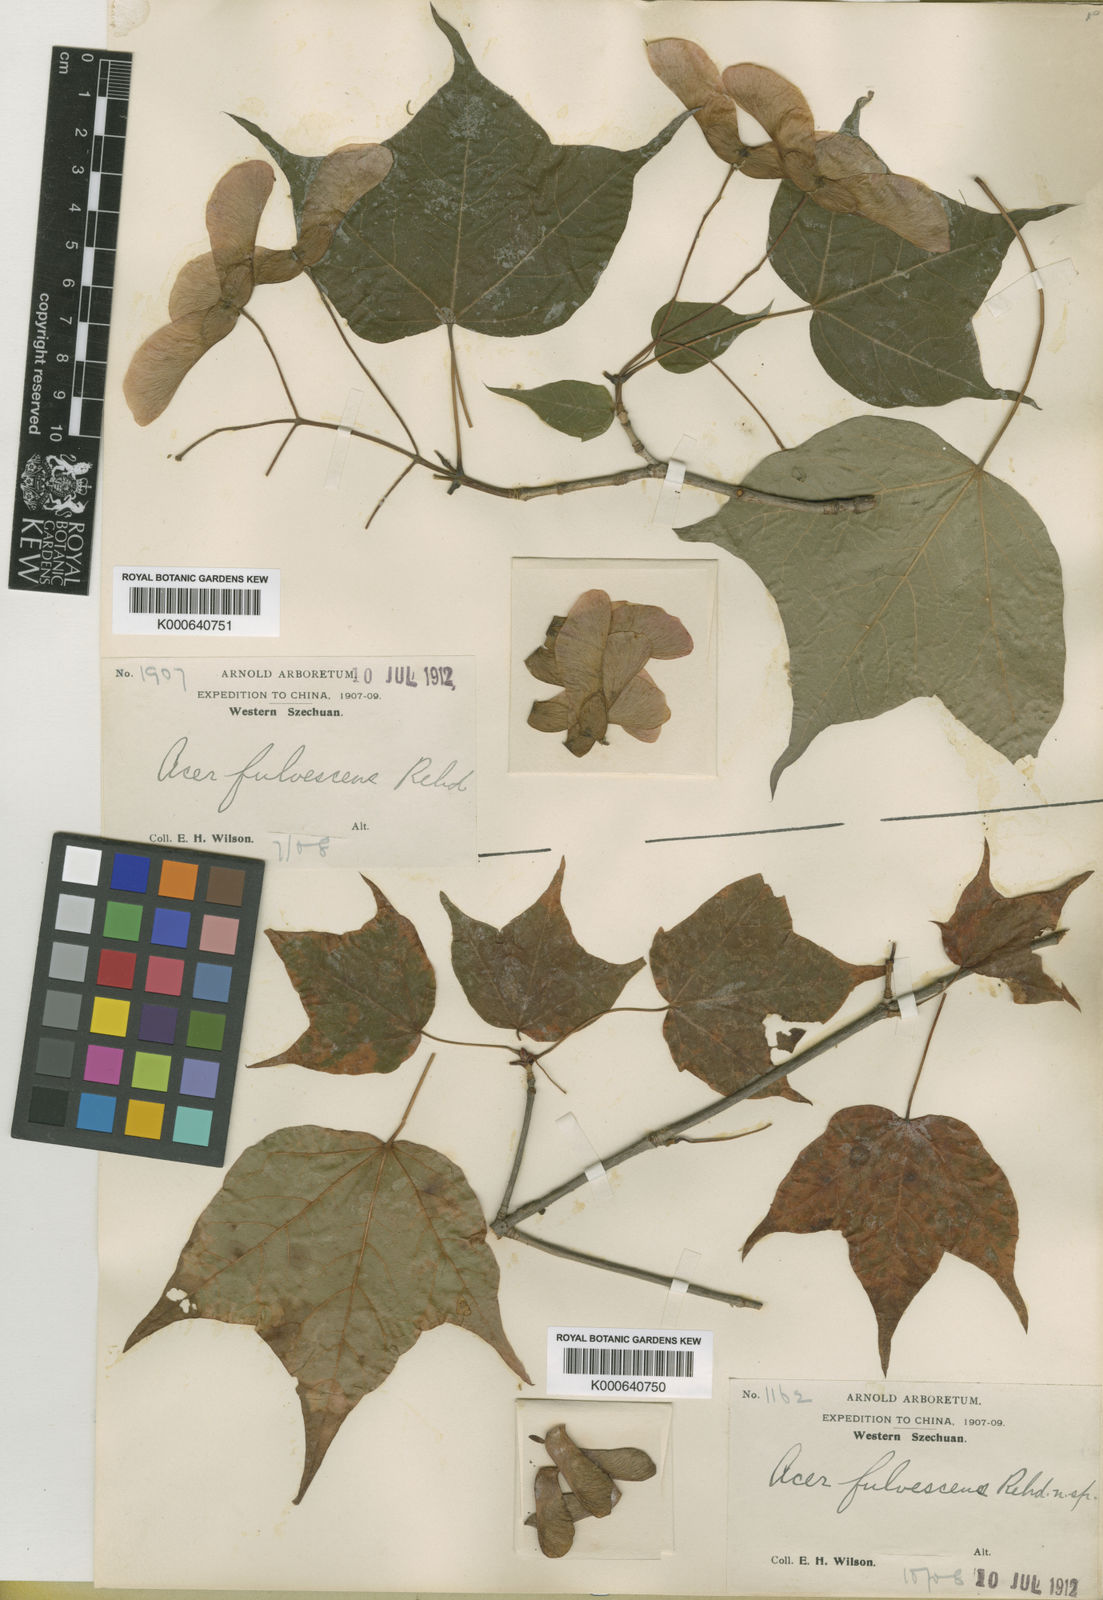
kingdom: Plantae
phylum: Tracheophyta
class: Magnoliopsida
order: Sapindales
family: Sapindaceae
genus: Acer
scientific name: Acer longipes
